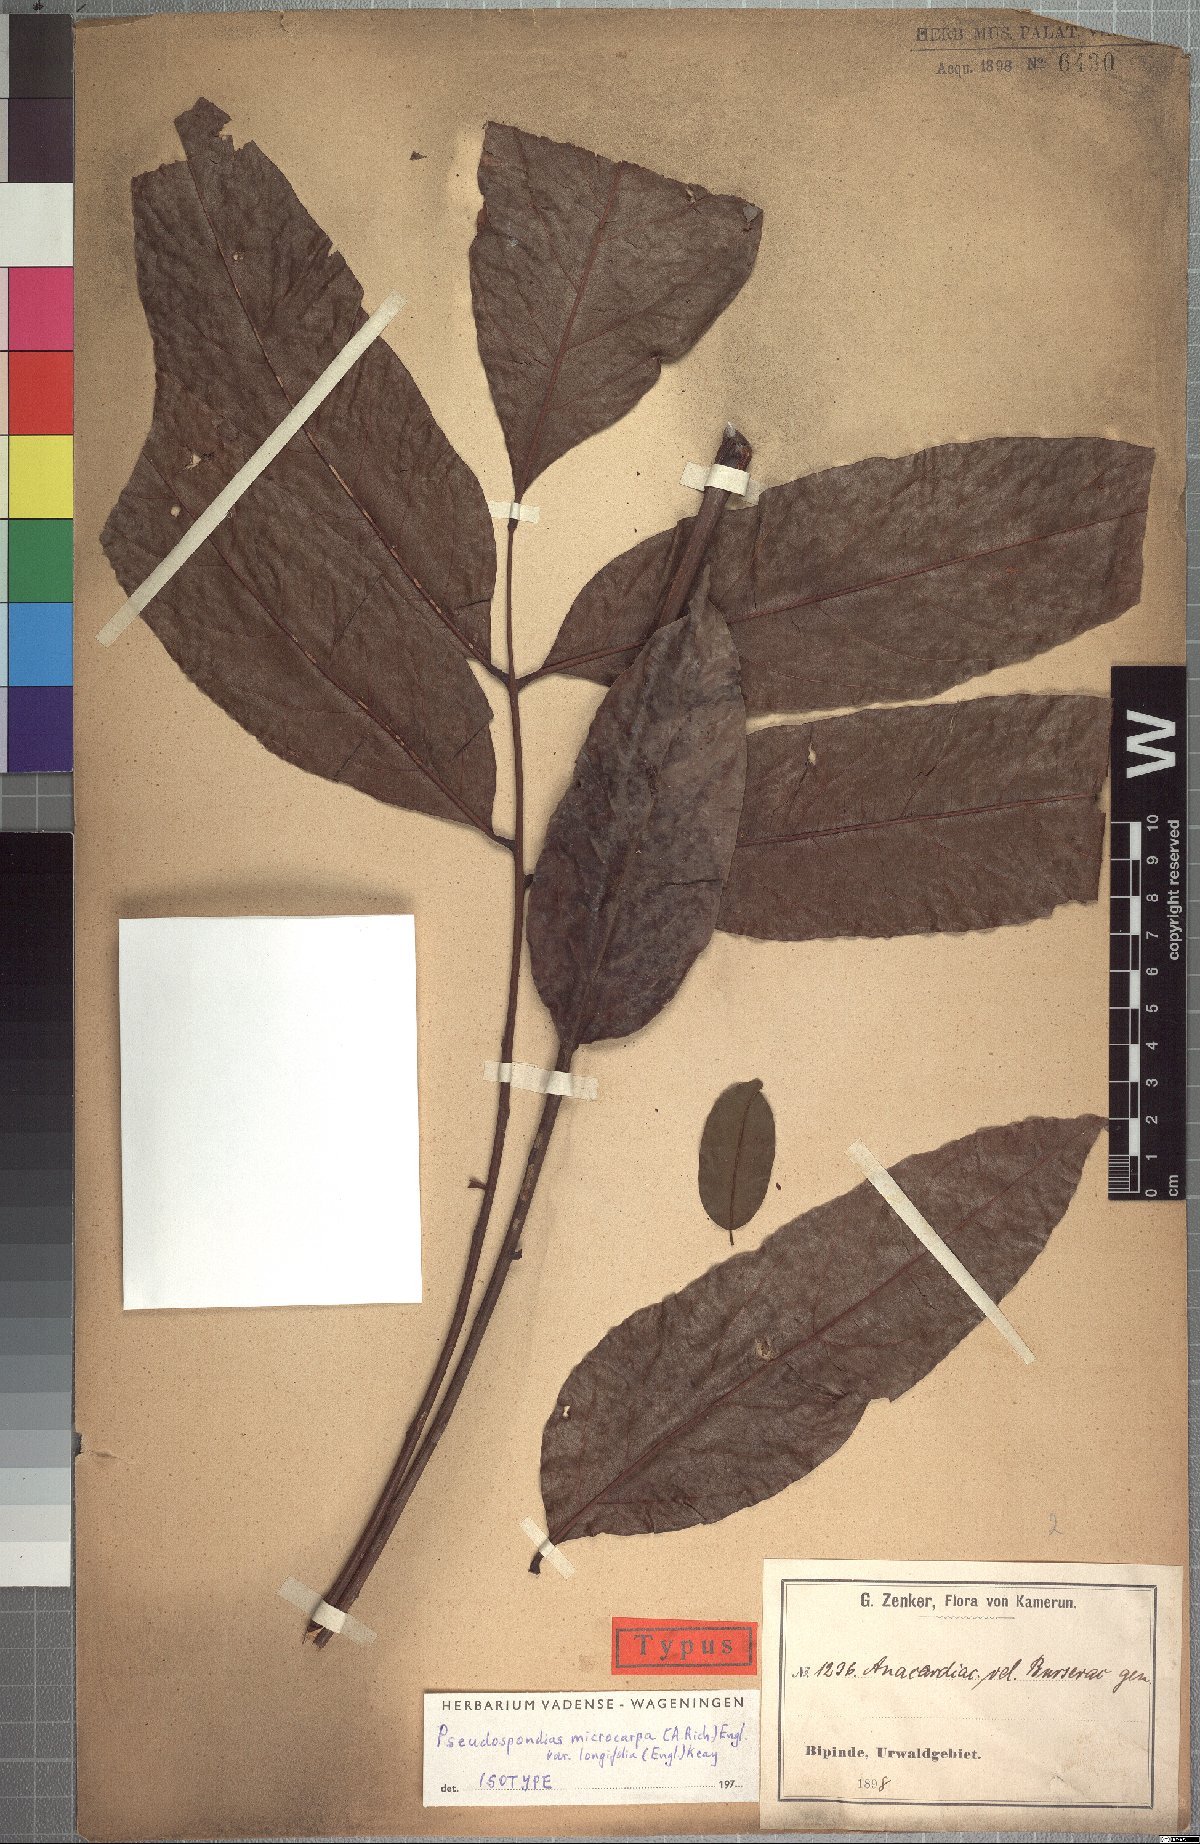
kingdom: Plantae
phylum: Tracheophyta
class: Magnoliopsida
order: Sapindales
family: Anacardiaceae
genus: Pseudospondias
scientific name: Pseudospondias longifolia
